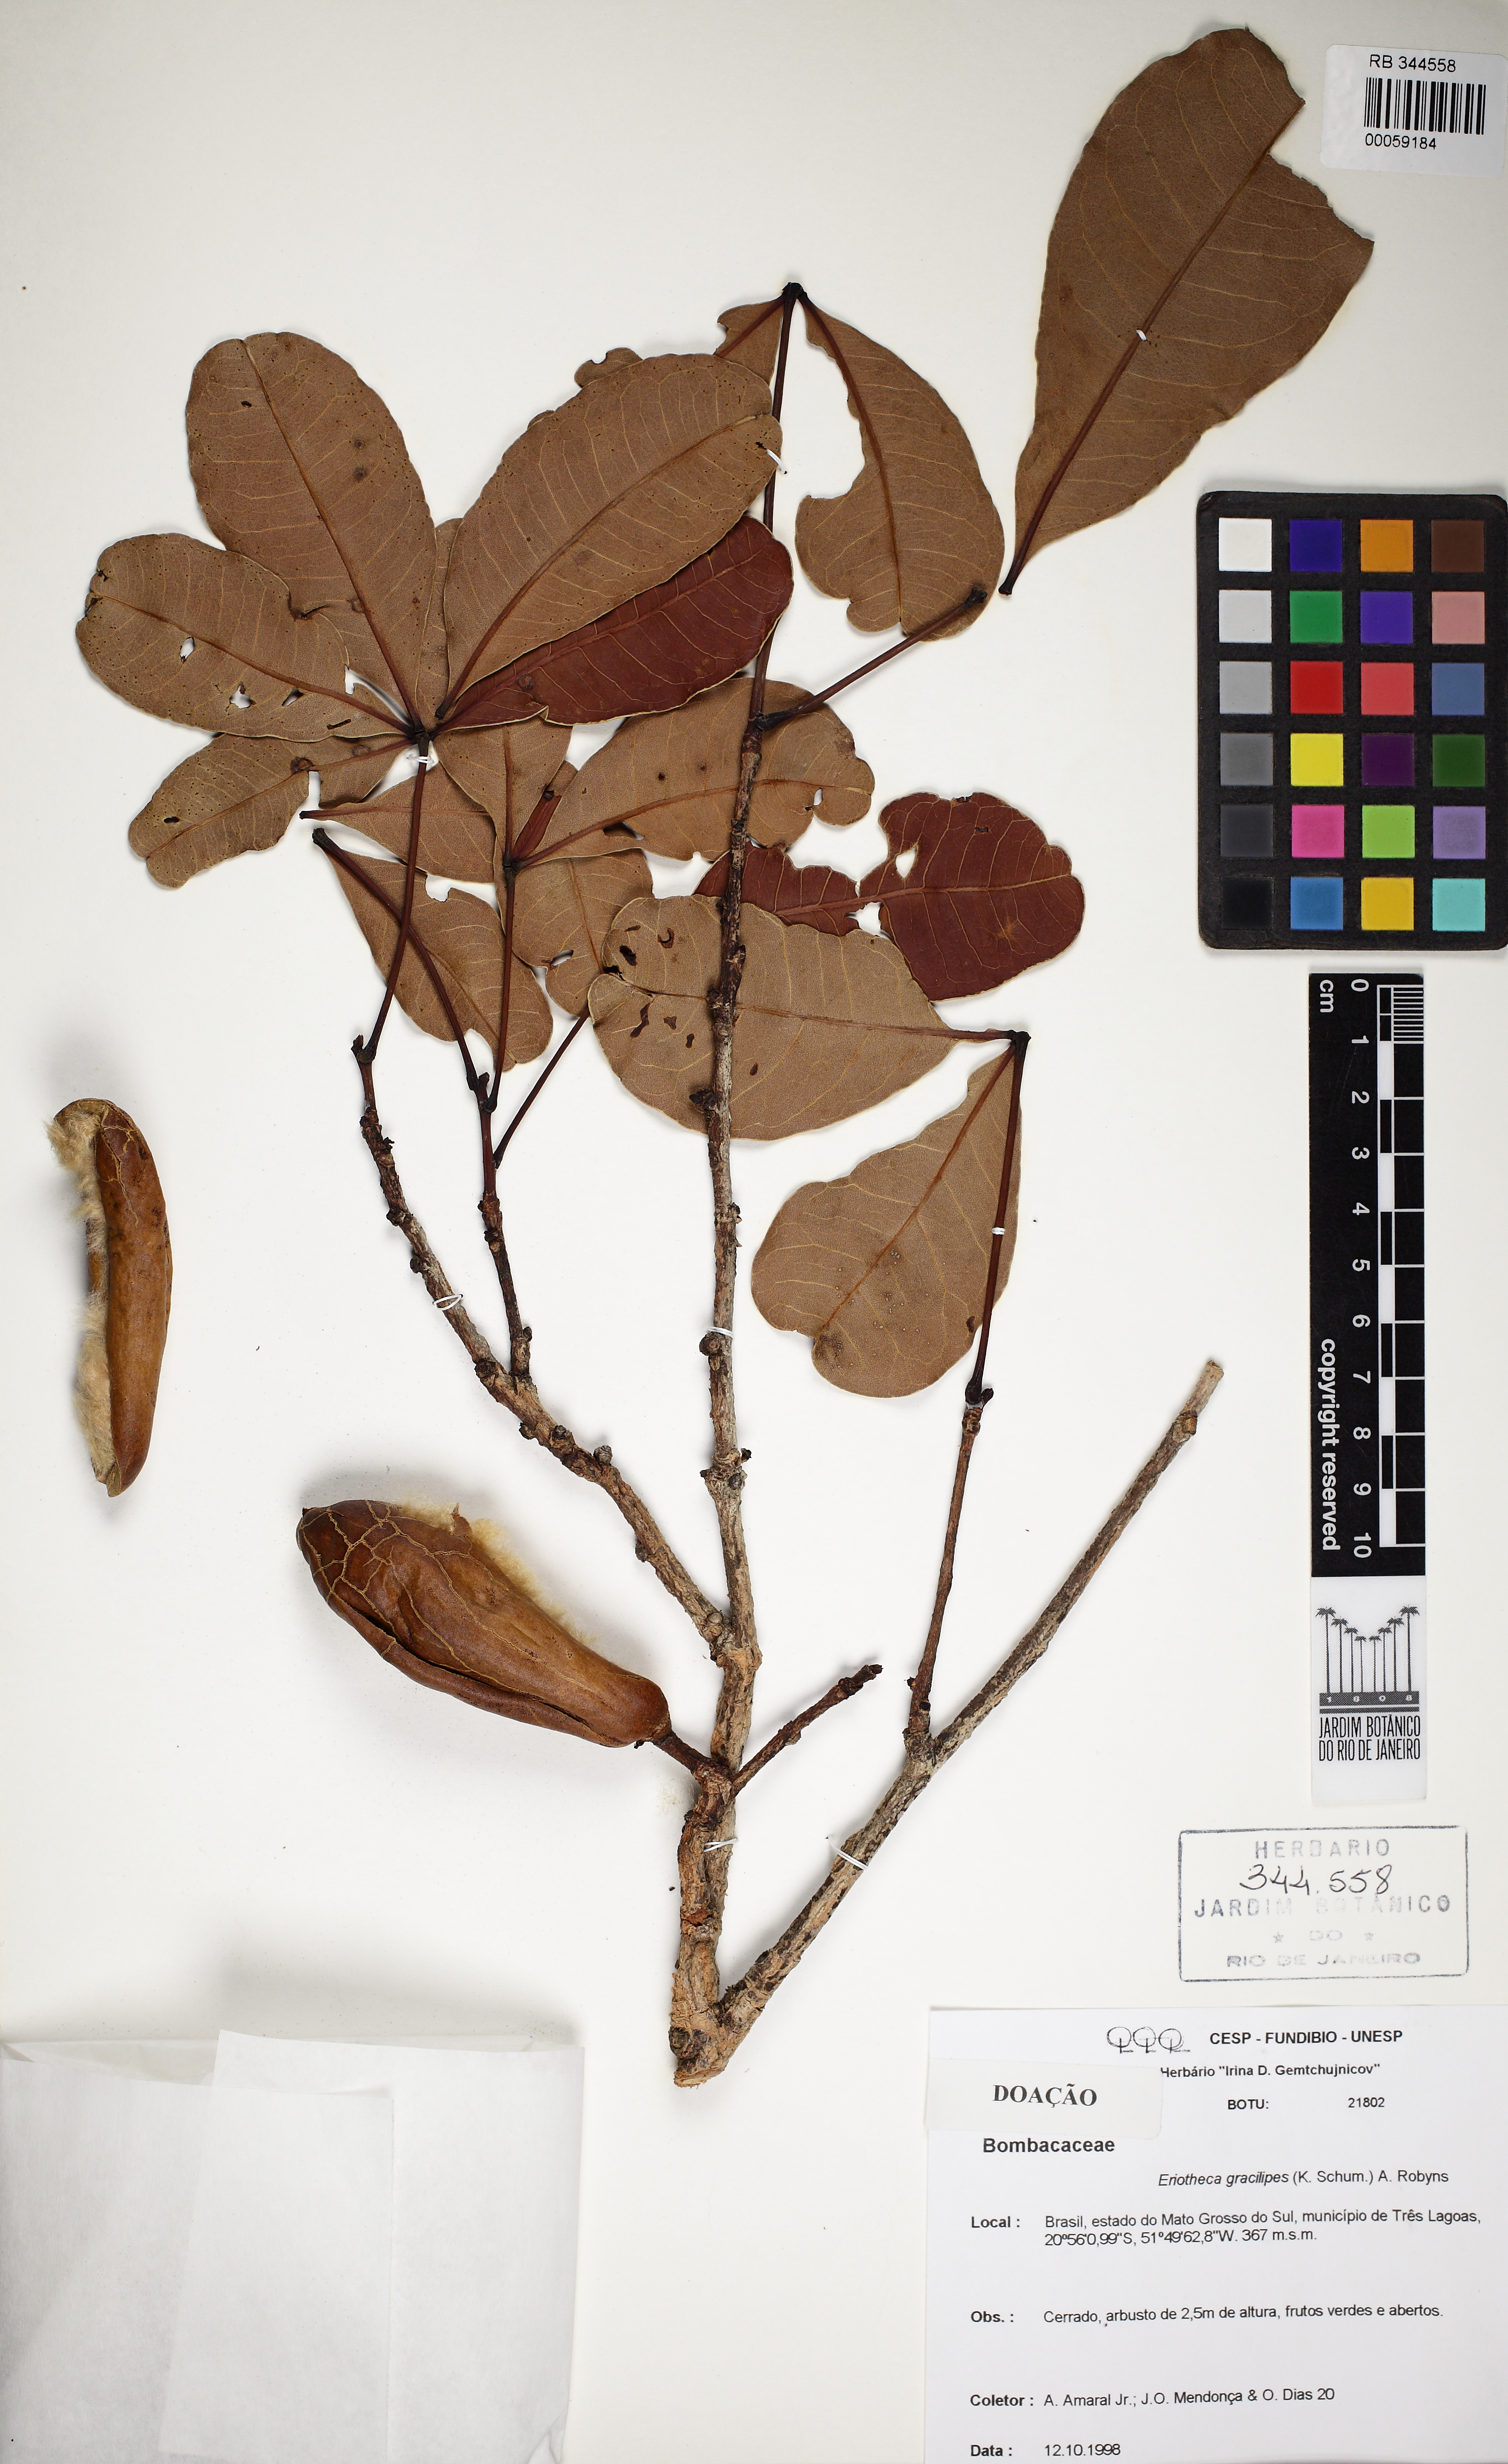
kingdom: Plantae
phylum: Tracheophyta
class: Magnoliopsida
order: Malvales
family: Malvaceae
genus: Eriotheca
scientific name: Eriotheca gracilipes
